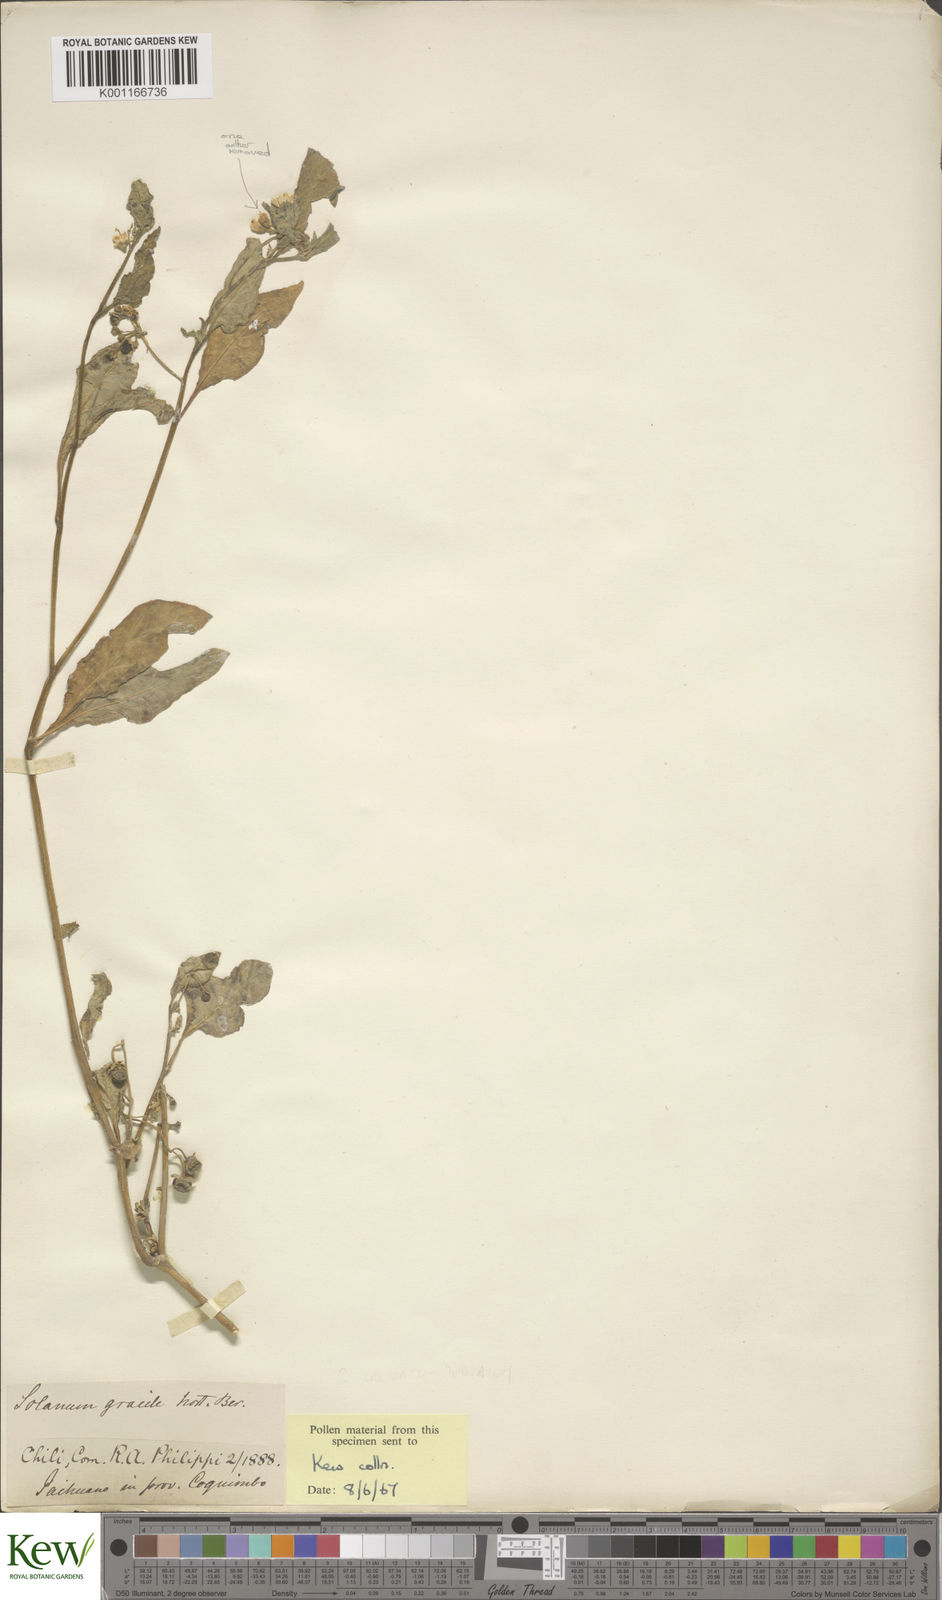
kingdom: Plantae
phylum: Tracheophyta
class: Magnoliopsida
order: Solanales
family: Solanaceae
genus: Solanum
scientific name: Solanum
